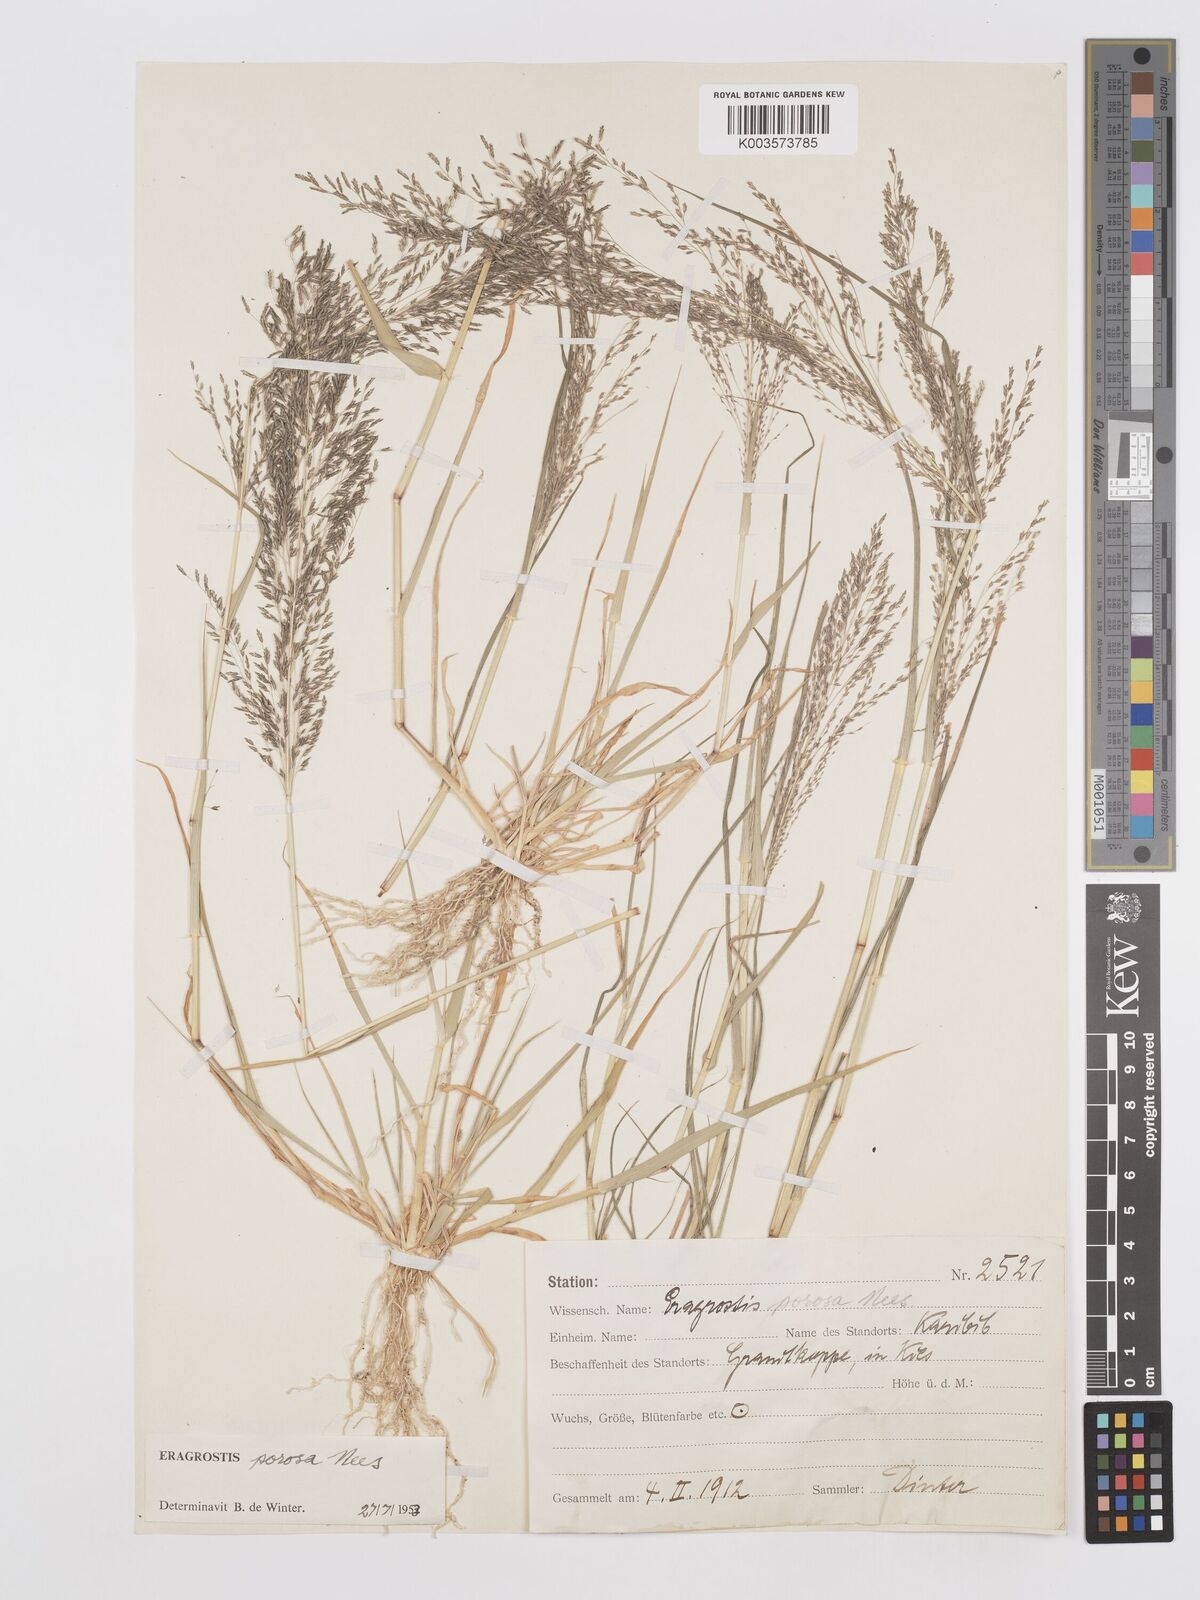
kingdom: Plantae
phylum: Tracheophyta
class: Liliopsida
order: Poales
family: Poaceae
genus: Eragrostis
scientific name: Eragrostis porosa
